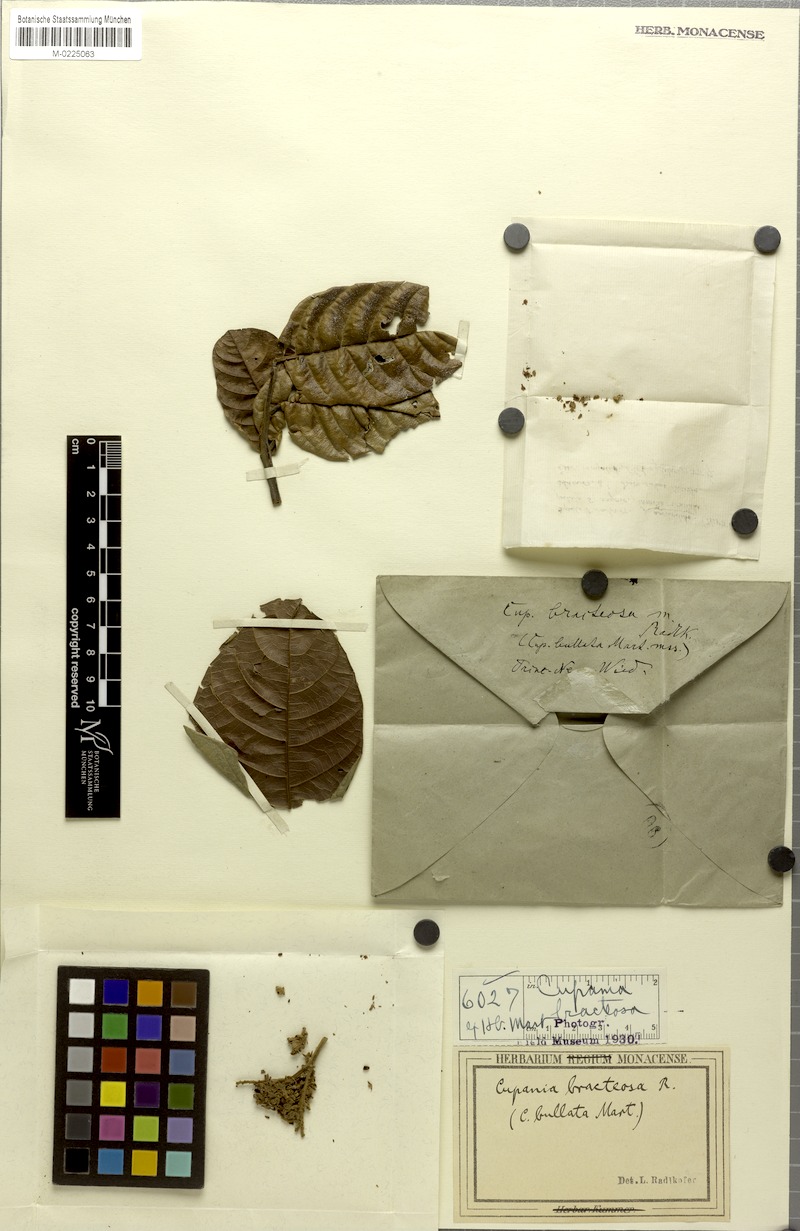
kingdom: Plantae
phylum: Tracheophyta
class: Magnoliopsida
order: Sapindales
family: Sapindaceae
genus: Cupania
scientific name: Cupania bracteosa
